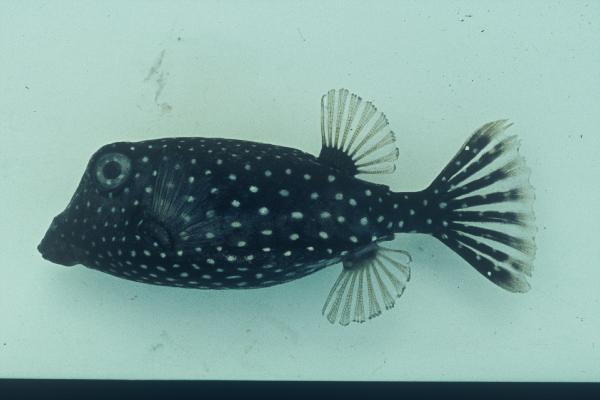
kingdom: Animalia
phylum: Chordata
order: Tetraodontiformes
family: Ostraciidae
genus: Ostracion
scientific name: Ostracion meleagris
